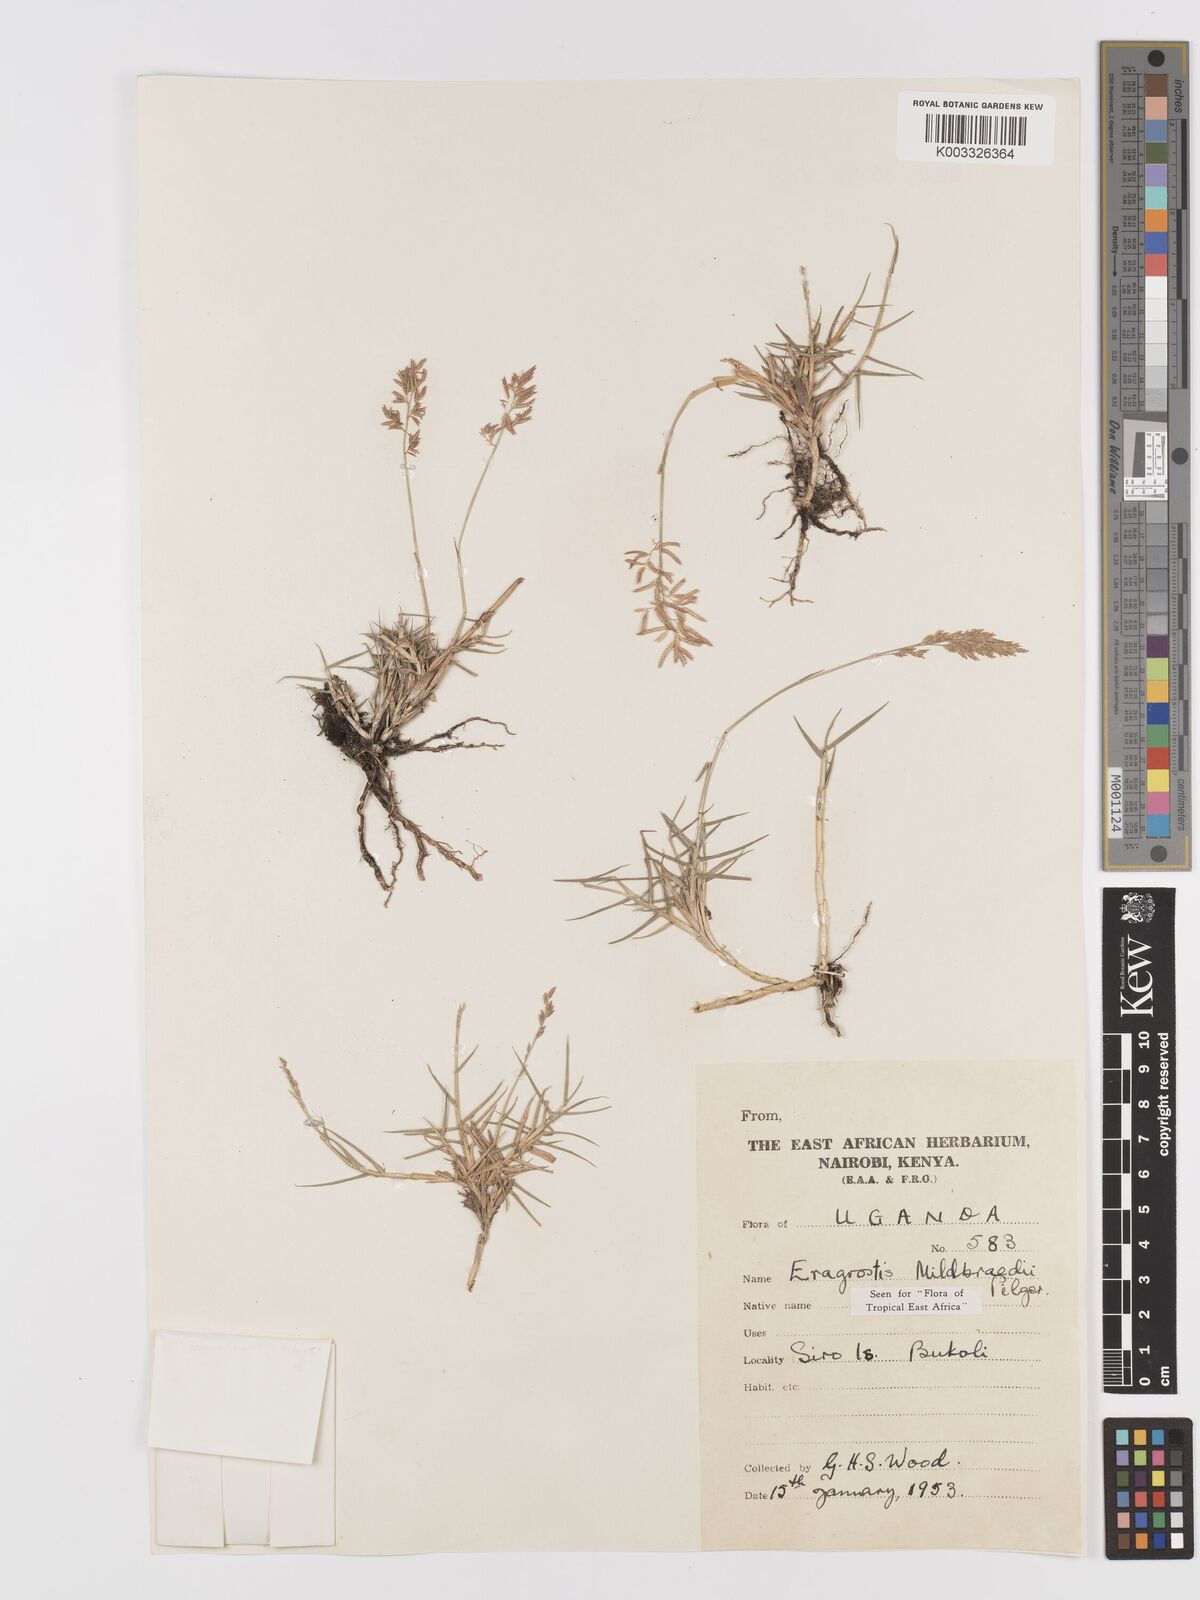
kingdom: Plantae
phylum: Tracheophyta
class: Liliopsida
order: Poales
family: Poaceae
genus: Eragrostis
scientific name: Eragrostis mildbraedii
